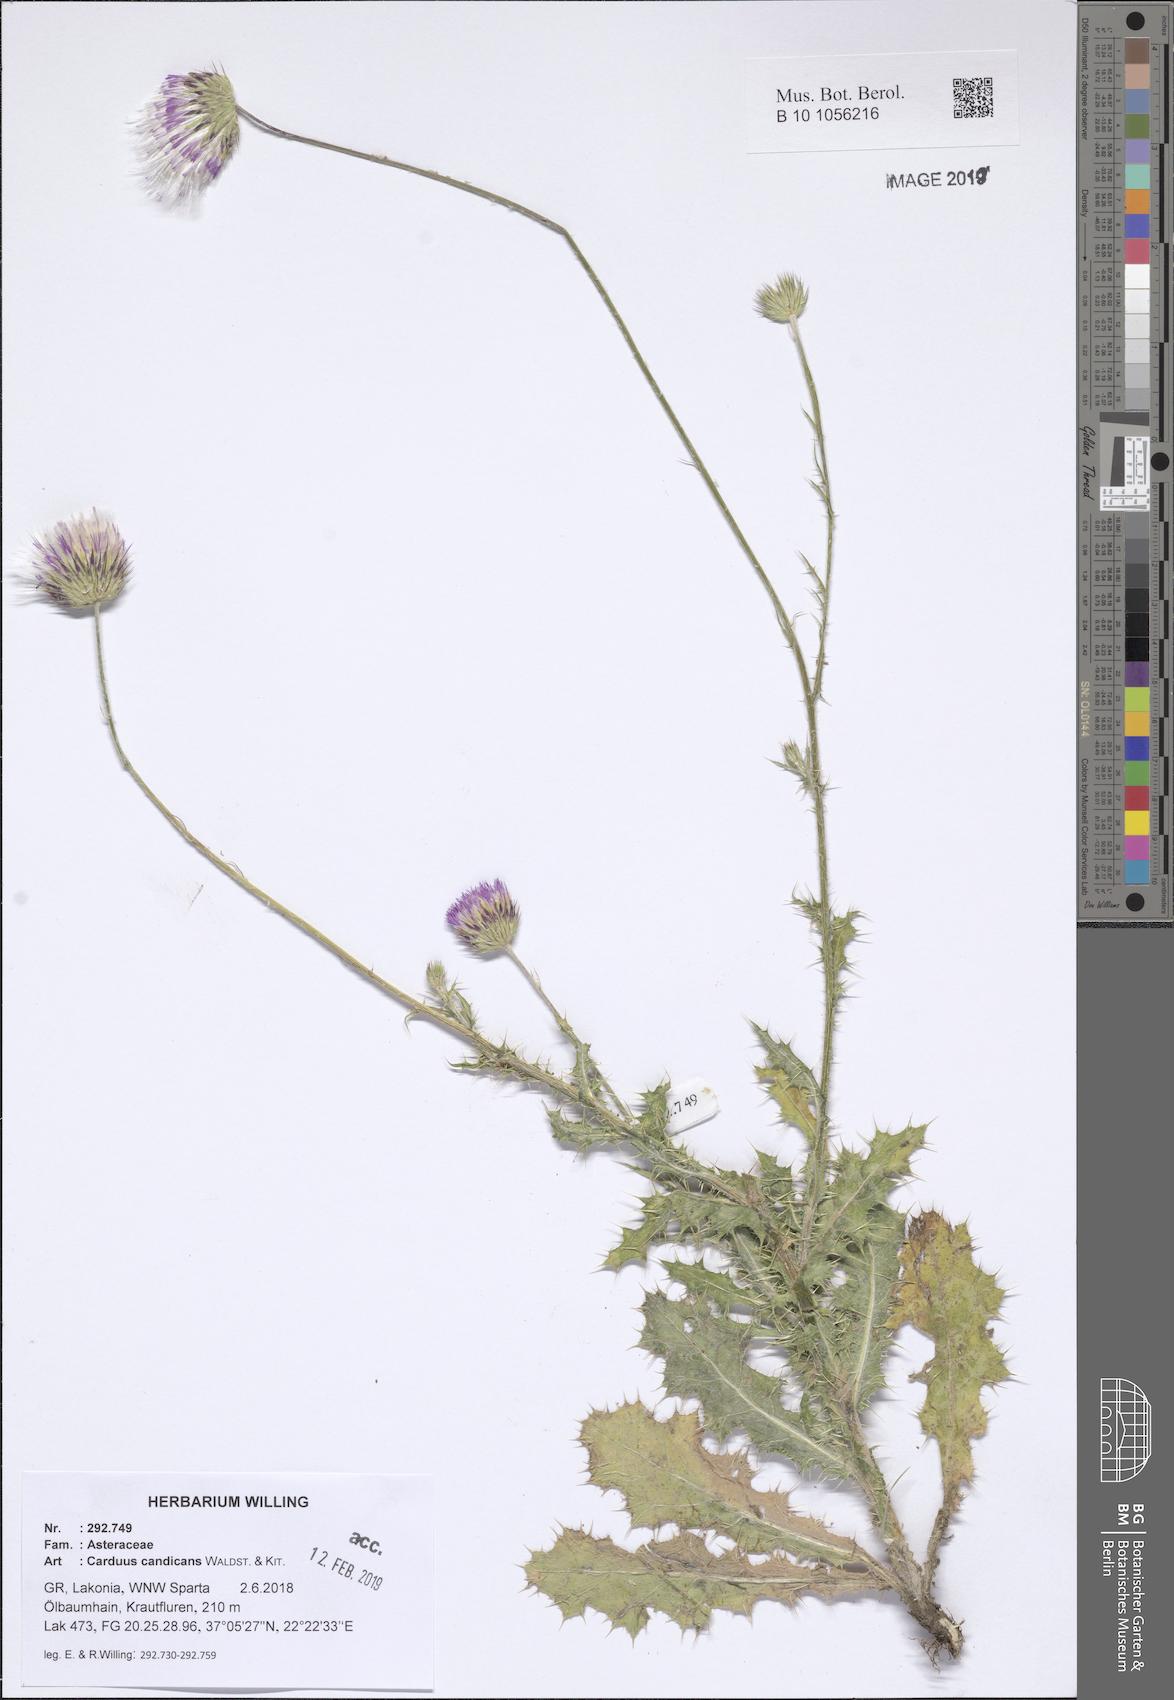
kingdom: Plantae
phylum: Tracheophyta
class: Magnoliopsida
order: Asterales
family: Asteraceae
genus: Carduus
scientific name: Carduus candicans
